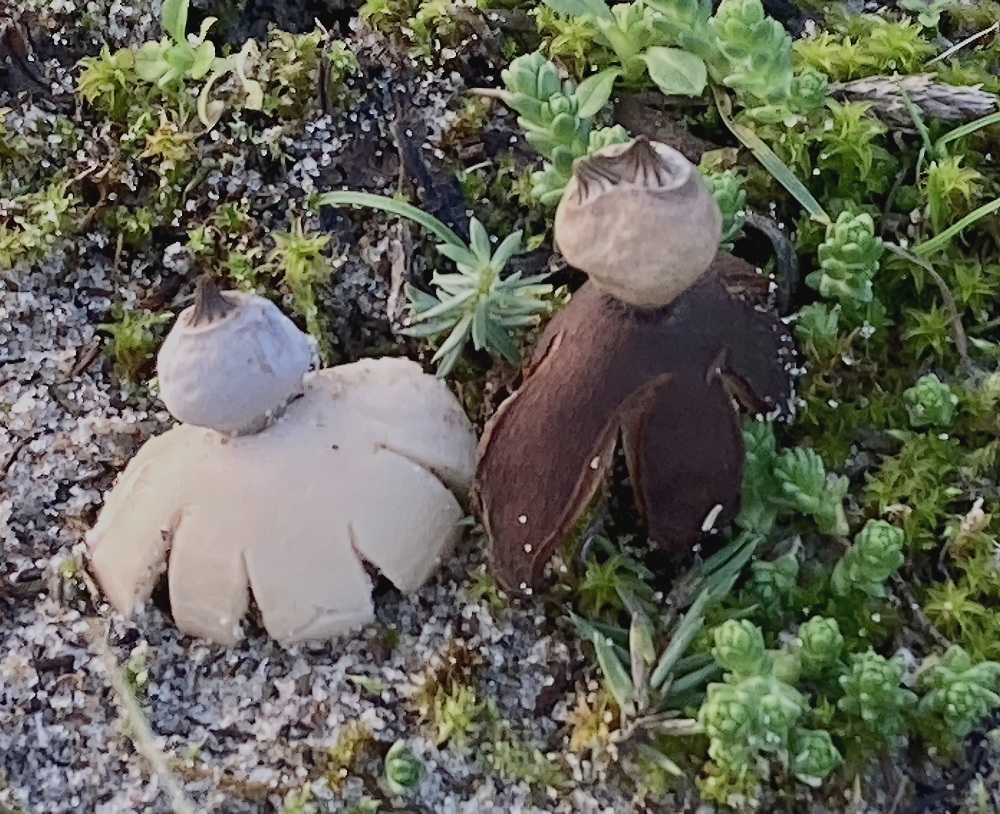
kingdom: Fungi
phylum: Basidiomycota
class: Agaricomycetes
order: Geastrales
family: Geastraceae
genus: Geastrum
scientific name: Geastrum striatum
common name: dværg-stjernebold
